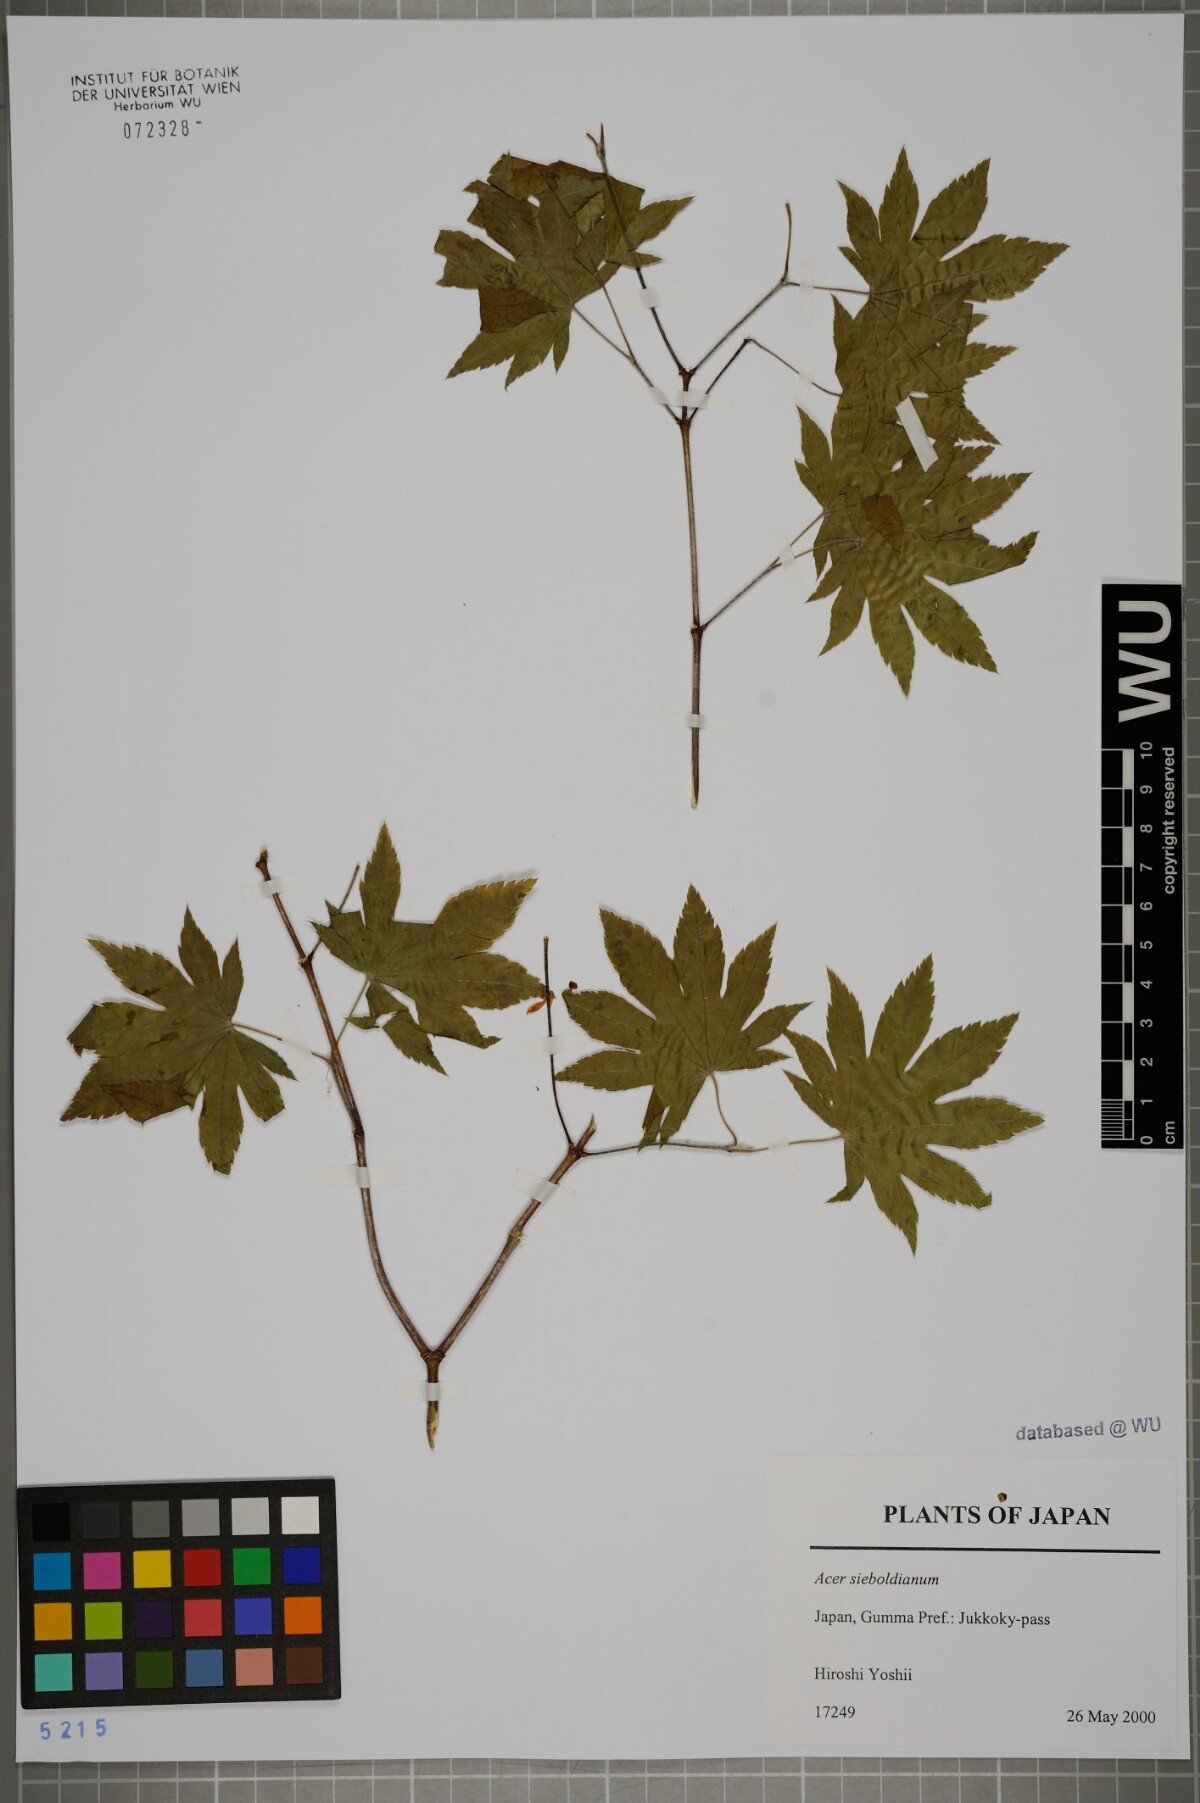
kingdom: Plantae
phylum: Tracheophyta
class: Magnoliopsida
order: Sapindales
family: Sapindaceae
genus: Acer
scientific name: Acer sieboldianum
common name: Siebold's maple
